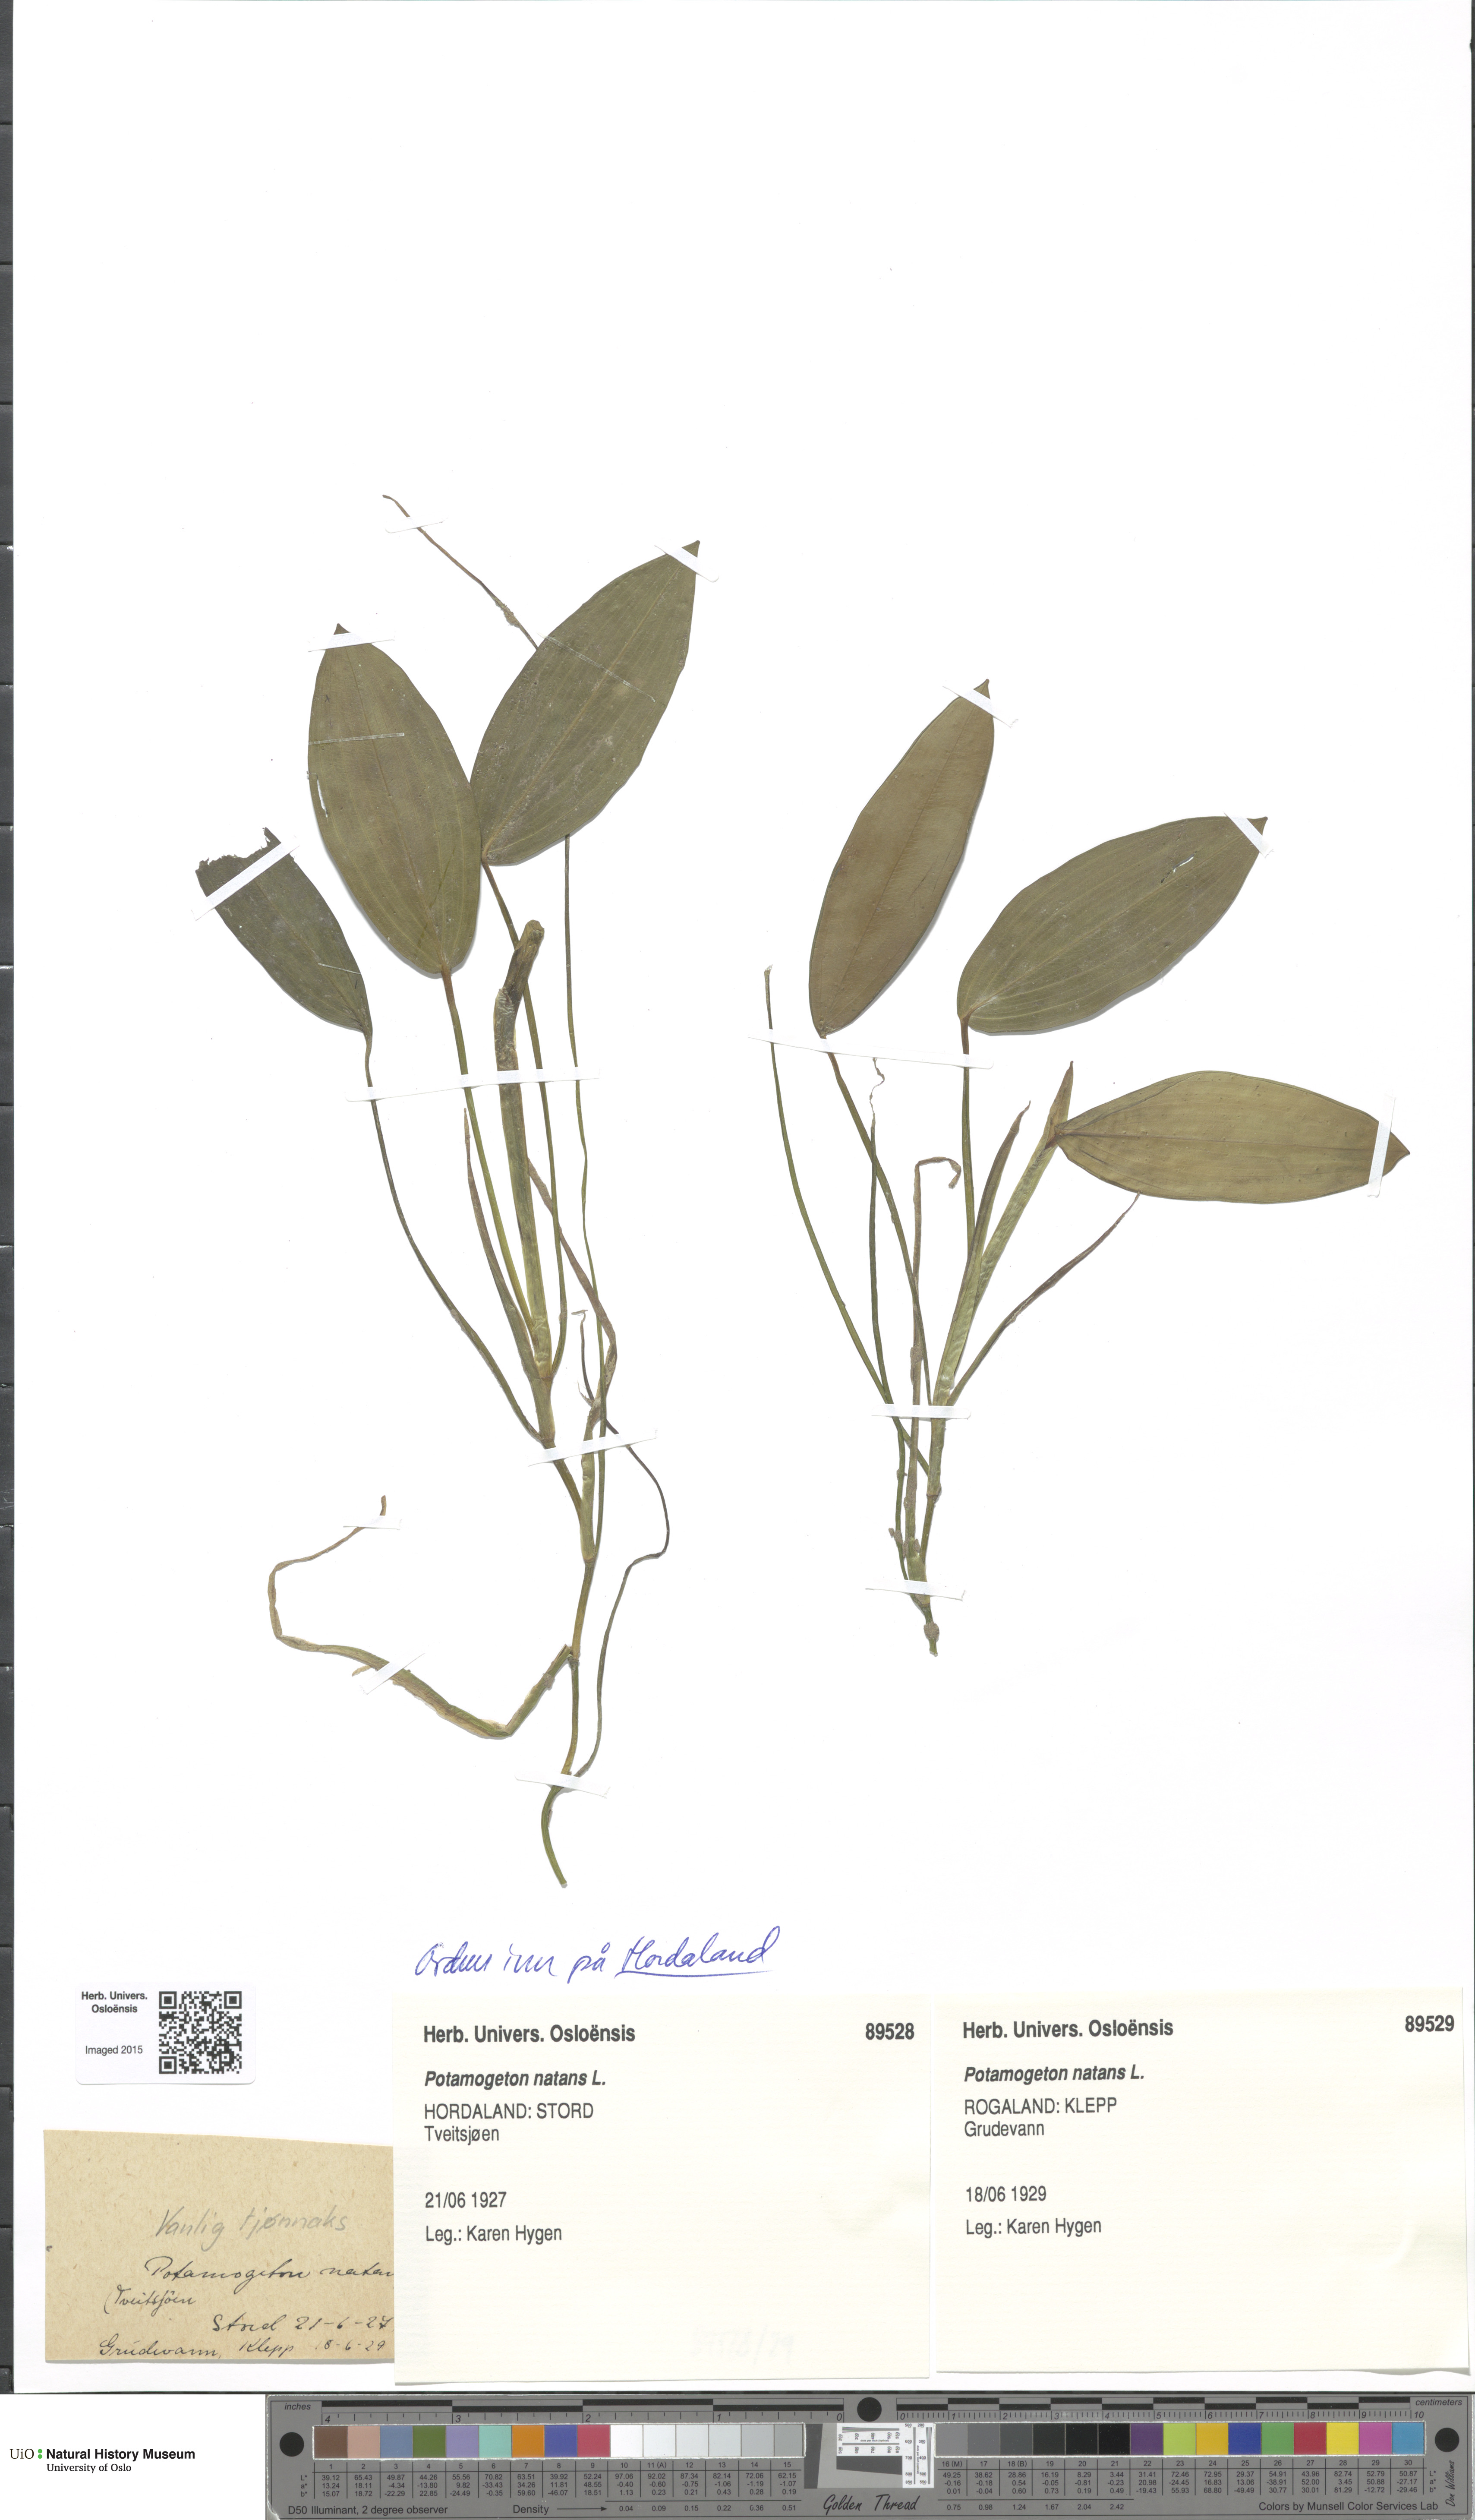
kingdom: Plantae
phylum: Tracheophyta
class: Liliopsida
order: Alismatales
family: Potamogetonaceae
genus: Potamogeton
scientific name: Potamogeton natans
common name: Broad-leaved pondweed
